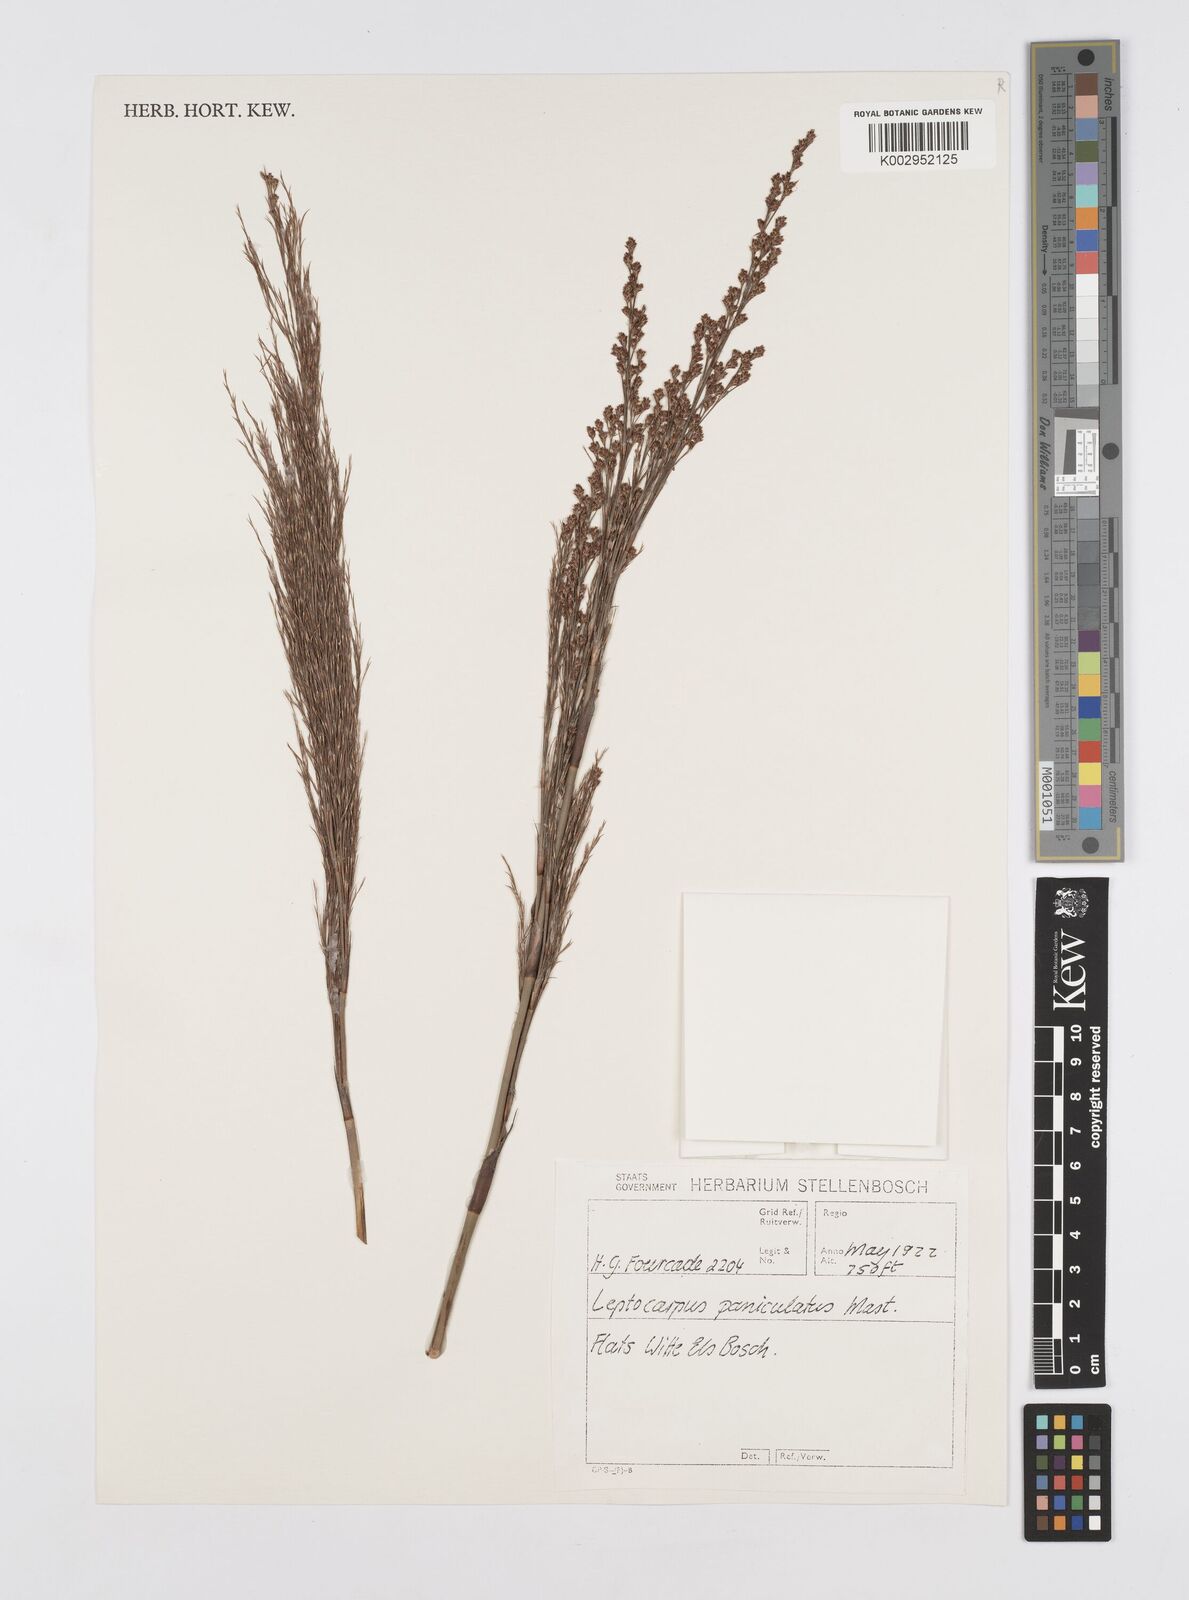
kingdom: Plantae
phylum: Tracheophyta
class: Liliopsida
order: Poales
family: Restionaceae
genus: Restio
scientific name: Restio paniculatus
